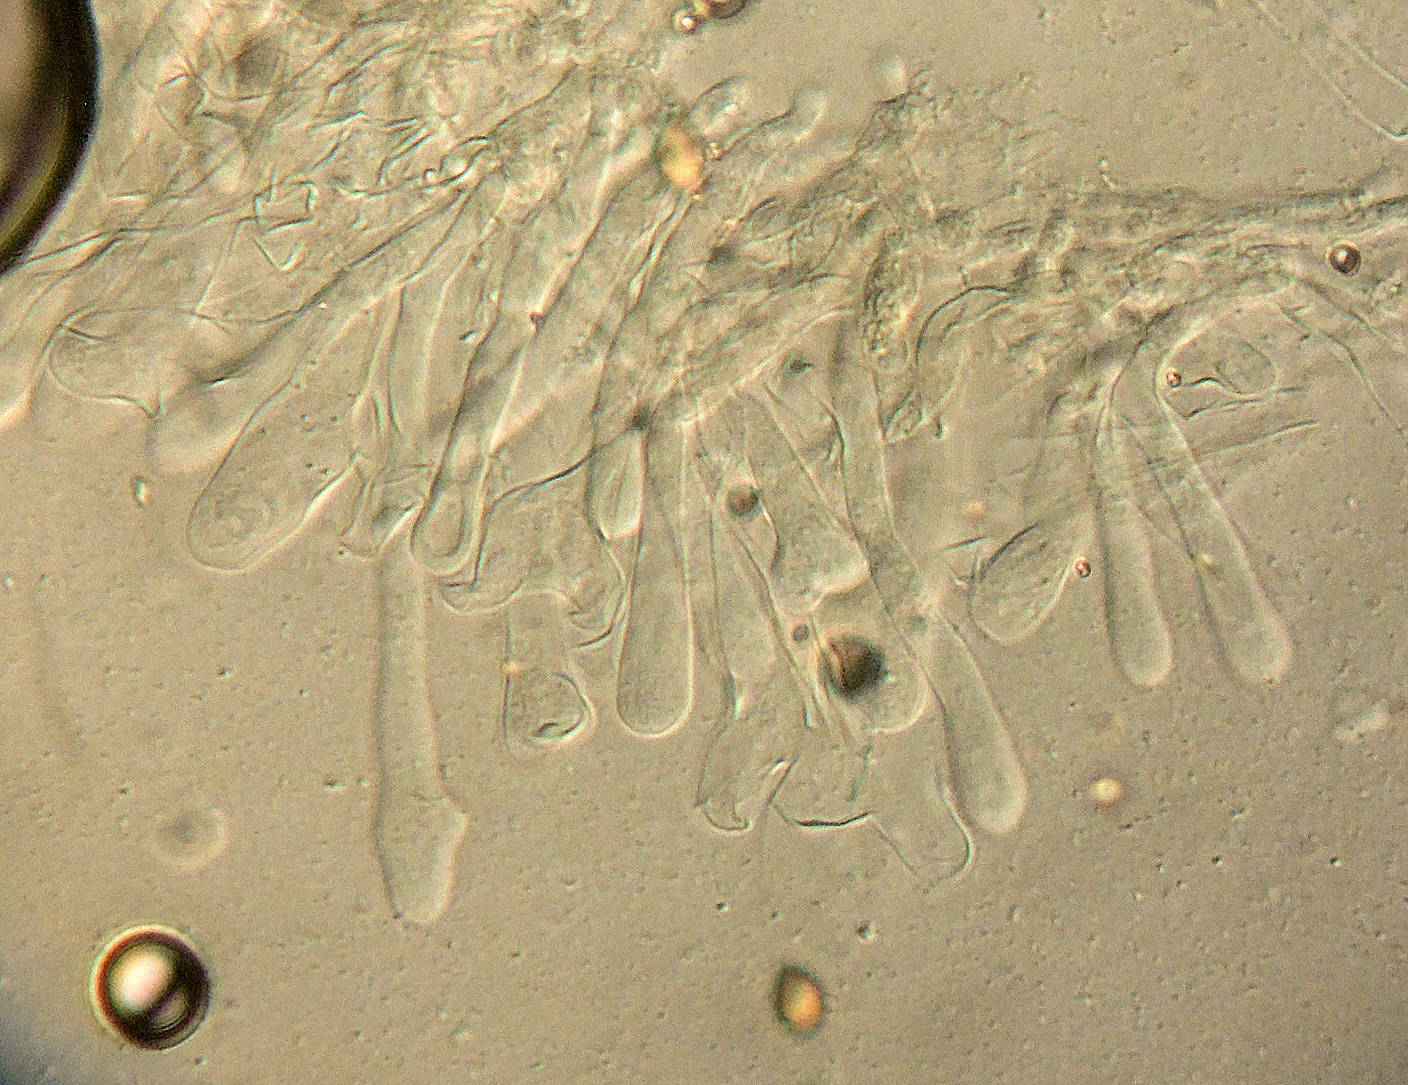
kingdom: Fungi
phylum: Basidiomycota
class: Agaricomycetes
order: Agaricales
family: Hymenogastraceae
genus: Hebeloma
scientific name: Hebeloma
